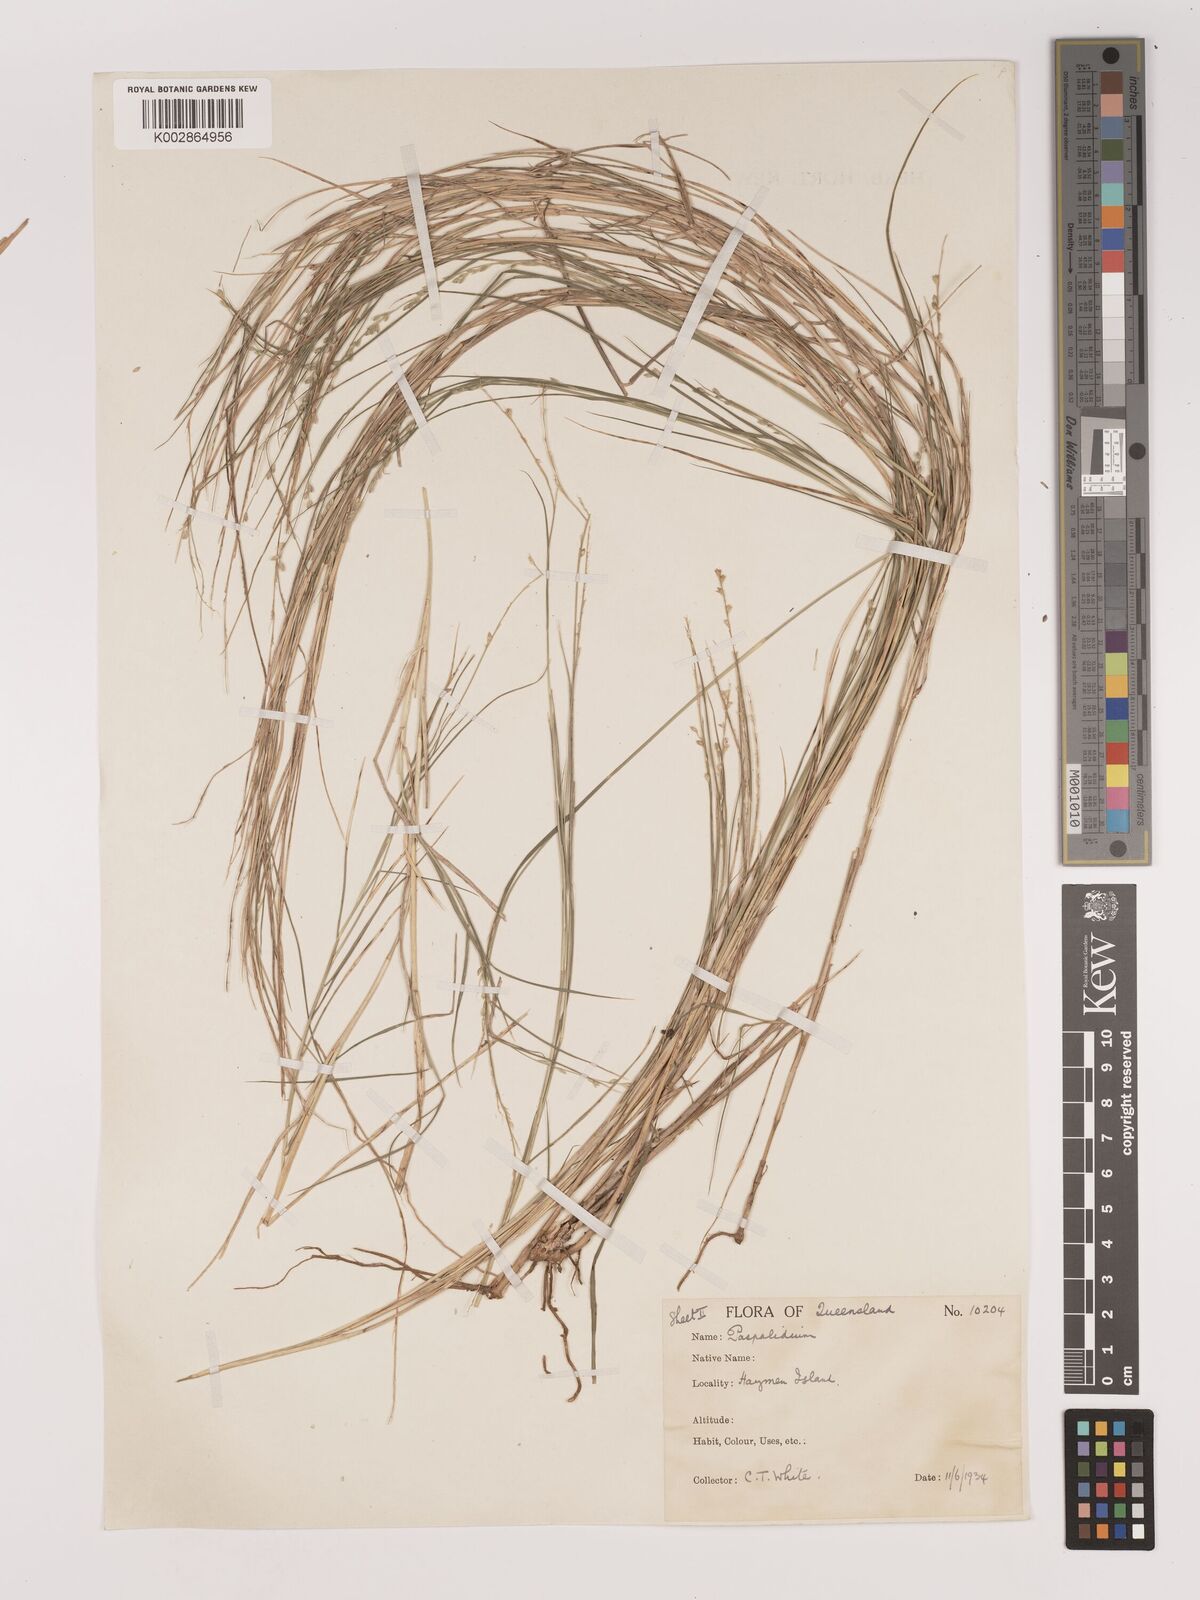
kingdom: Plantae
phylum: Tracheophyta
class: Liliopsida
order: Poales
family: Poaceae
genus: Setaria
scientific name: Setaria
